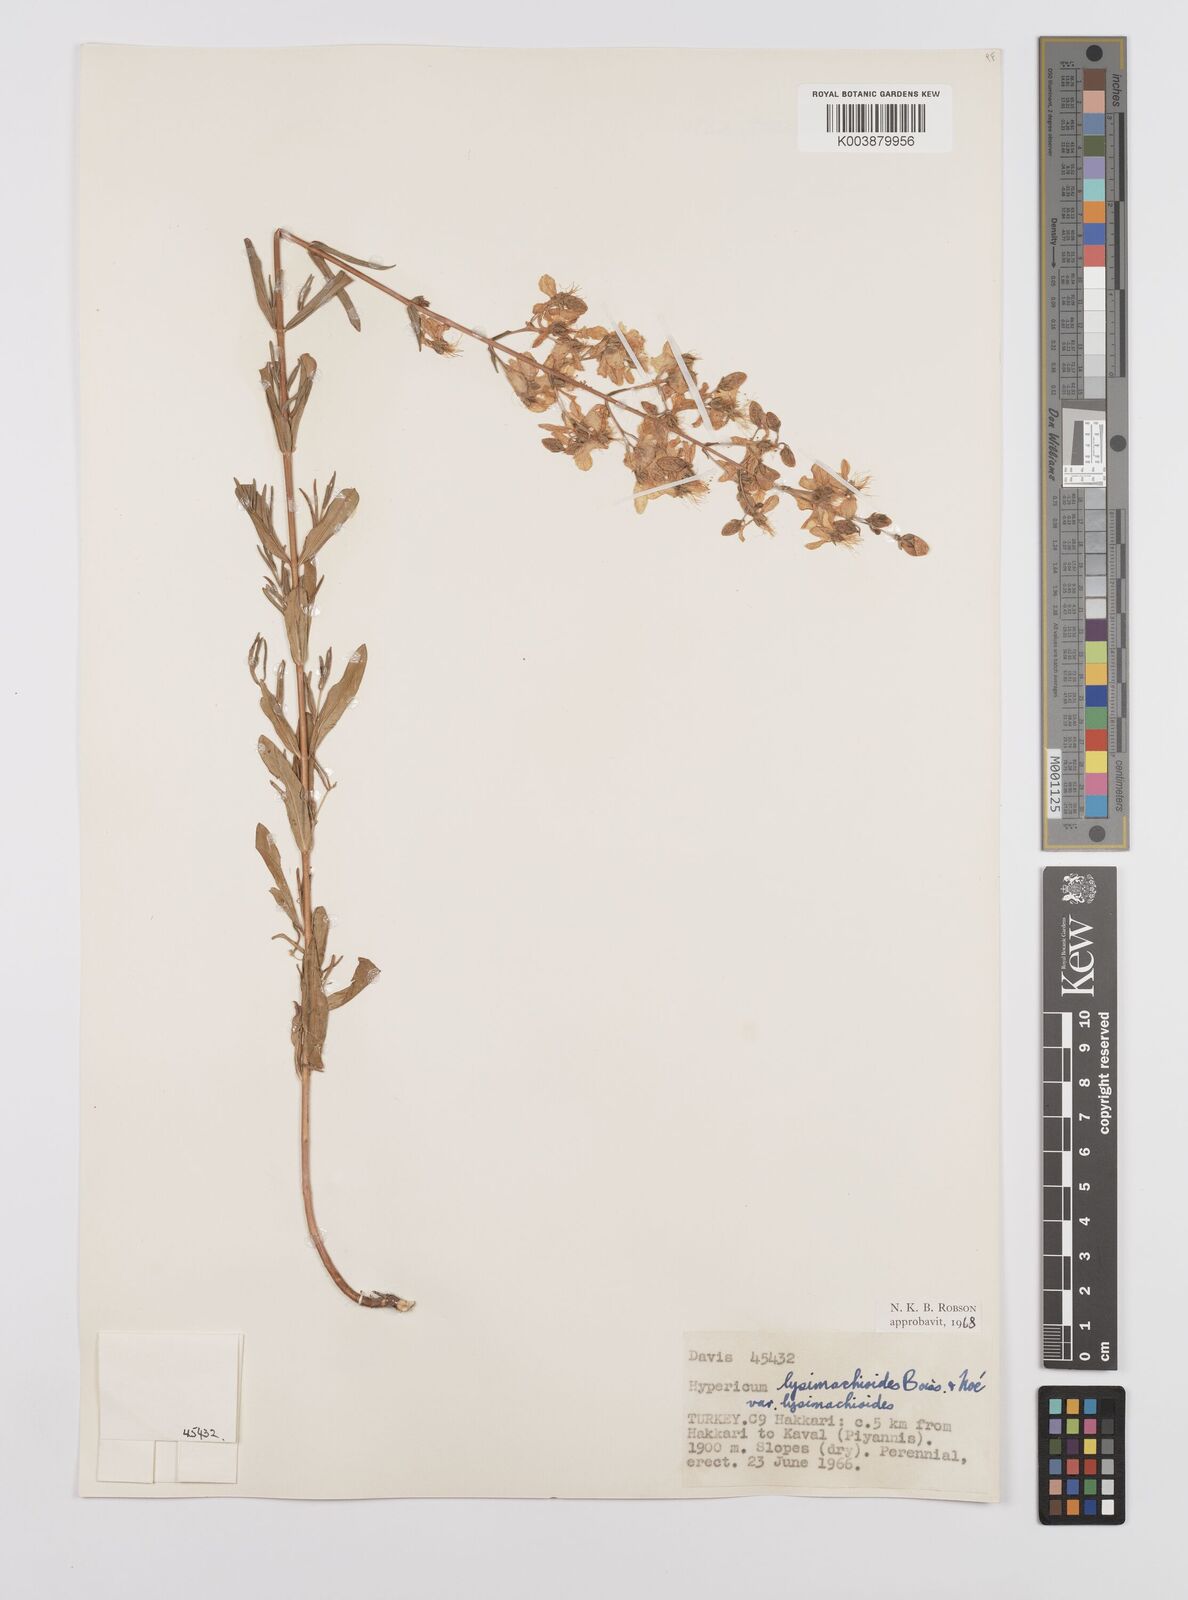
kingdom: Plantae
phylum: Tracheophyta
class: Magnoliopsida
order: Malpighiales
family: Hypericaceae
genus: Hypericum
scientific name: Hypericum lysimachioides
